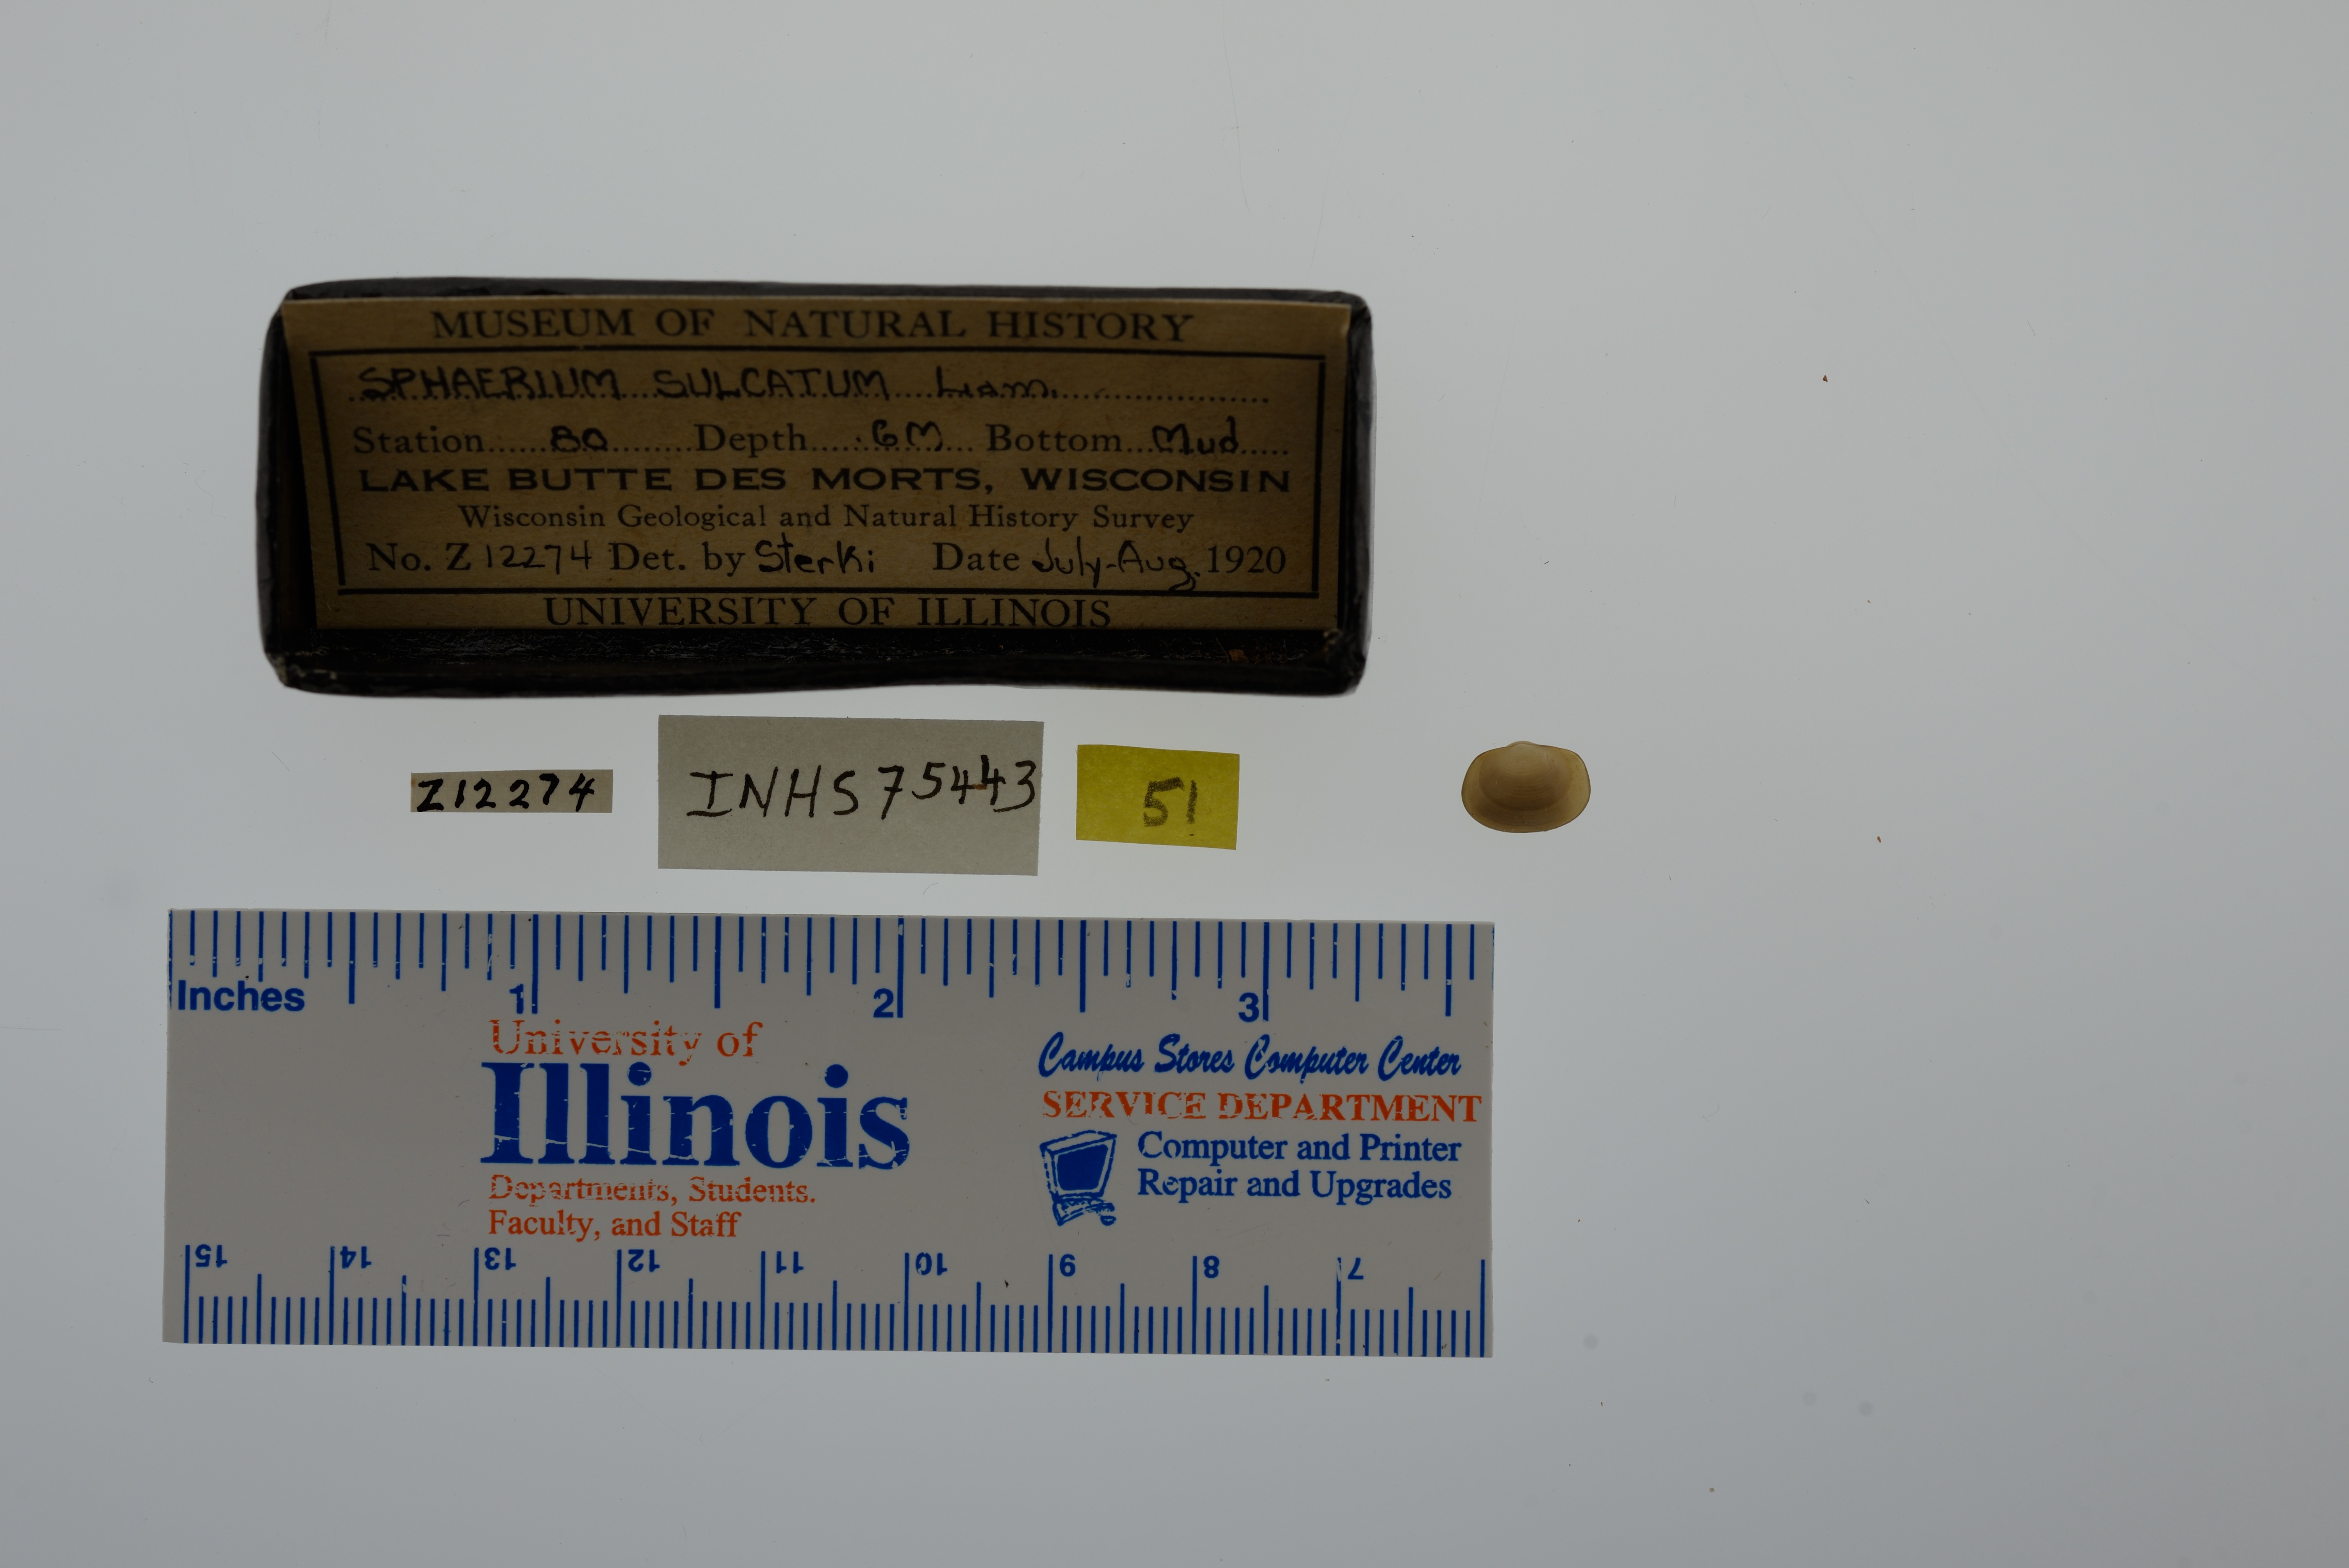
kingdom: Animalia
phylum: Mollusca
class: Bivalvia
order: Sphaeriida
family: Sphaeriidae
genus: Sphaerium
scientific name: Sphaerium simile
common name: Grooved fingernailclam
